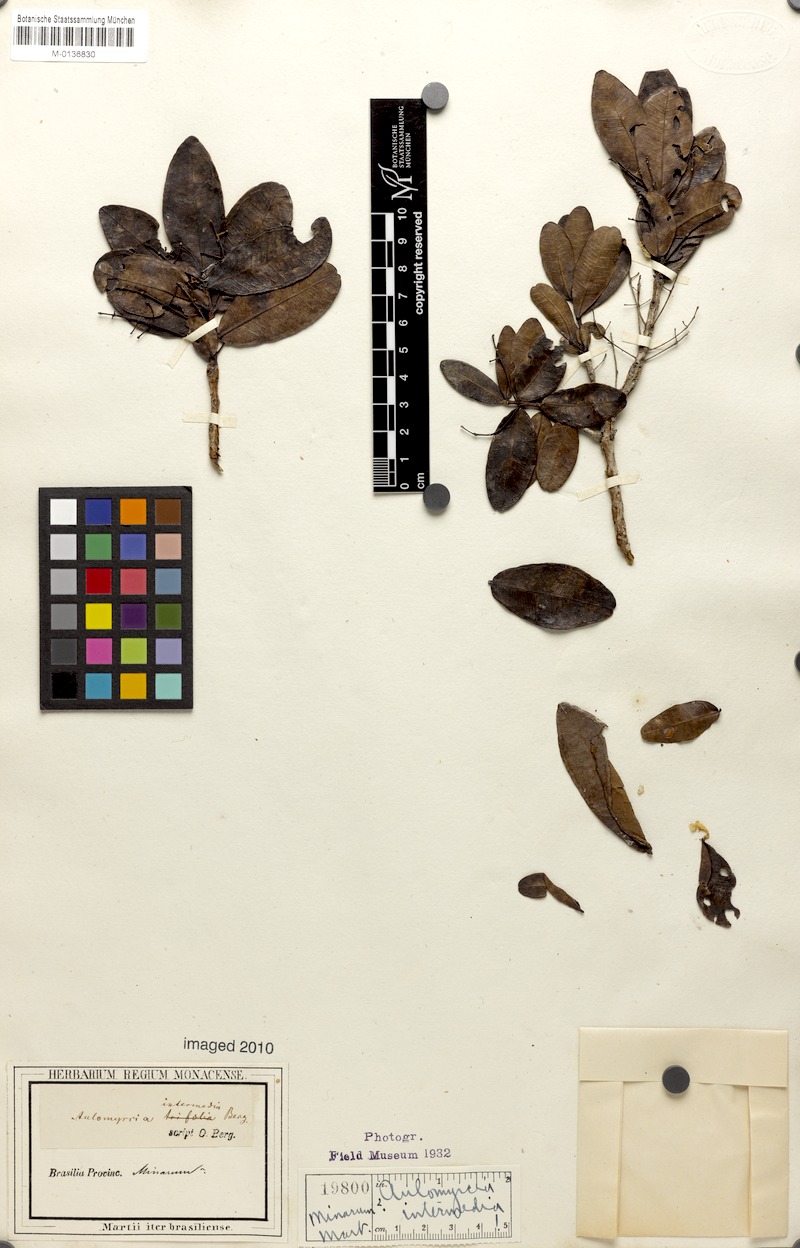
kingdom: Plantae
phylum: Tracheophyta
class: Magnoliopsida
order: Myrtales
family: Myrtaceae
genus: Myrcia
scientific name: Myrcia guianensis
